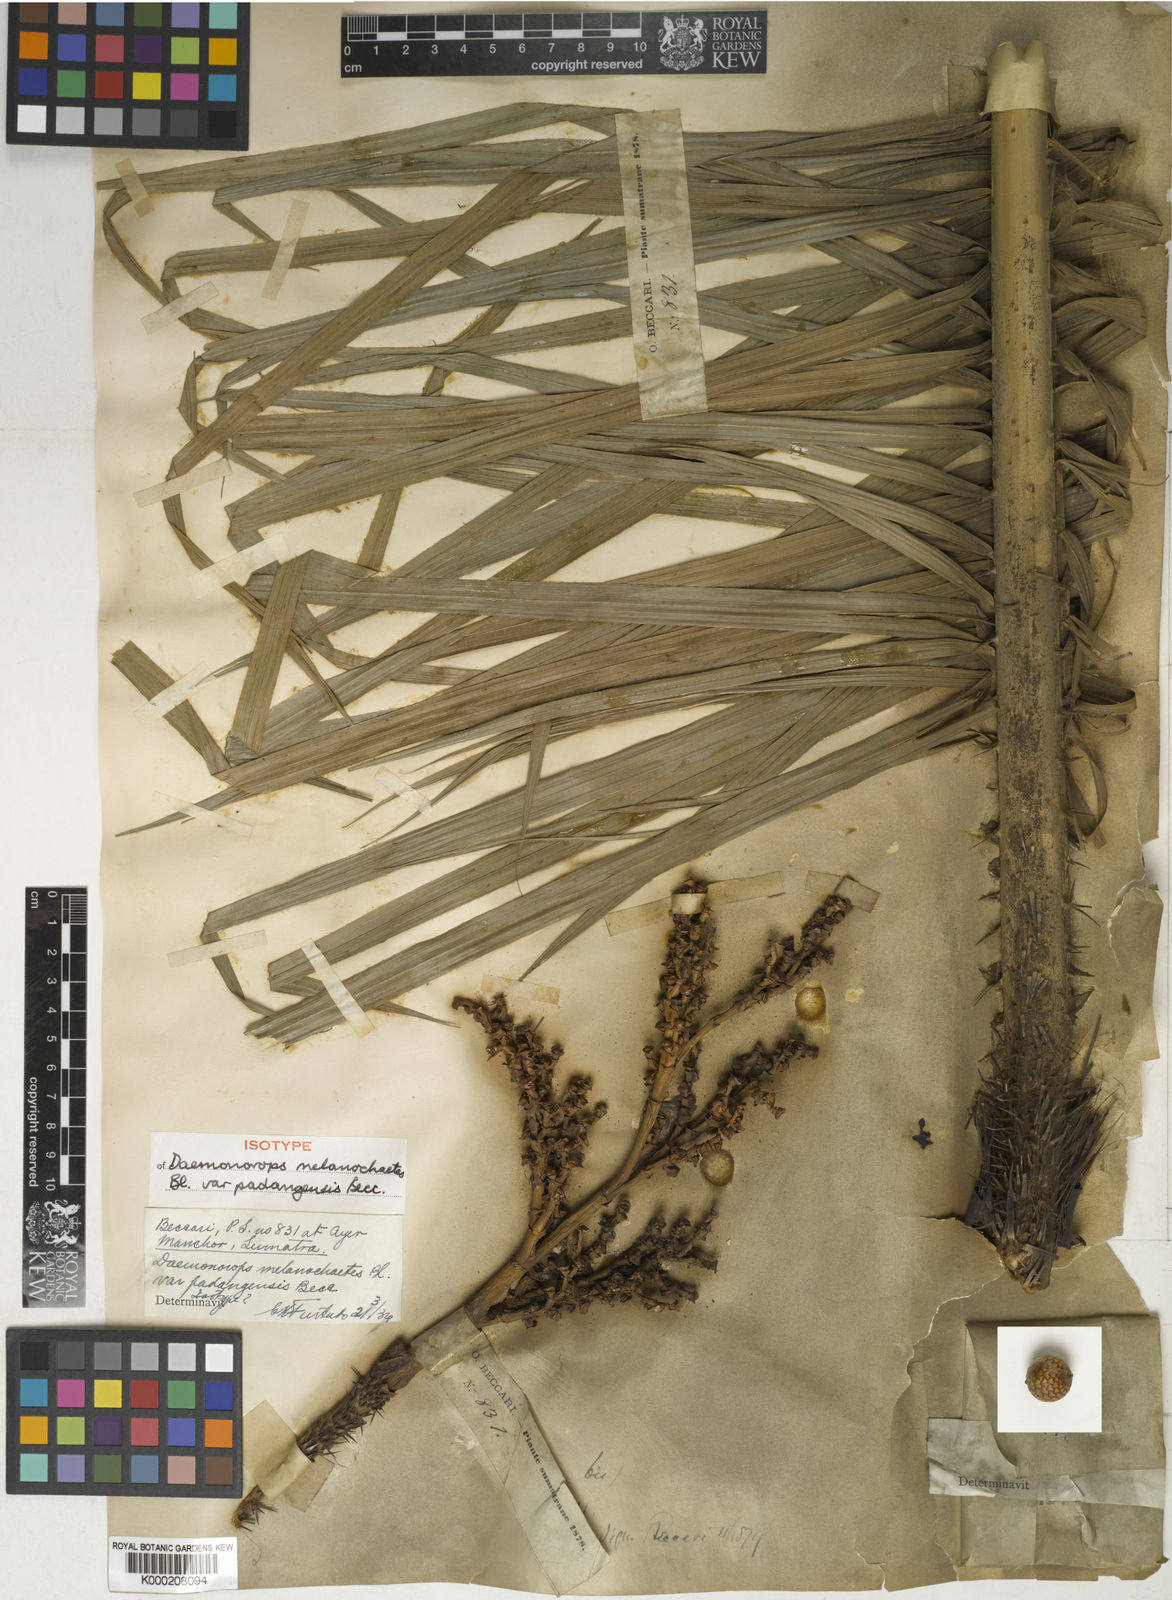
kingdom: Plantae
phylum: Tracheophyta
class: Liliopsida
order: Arecales
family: Arecaceae
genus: Calamus
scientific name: Calamus melanochaetes
